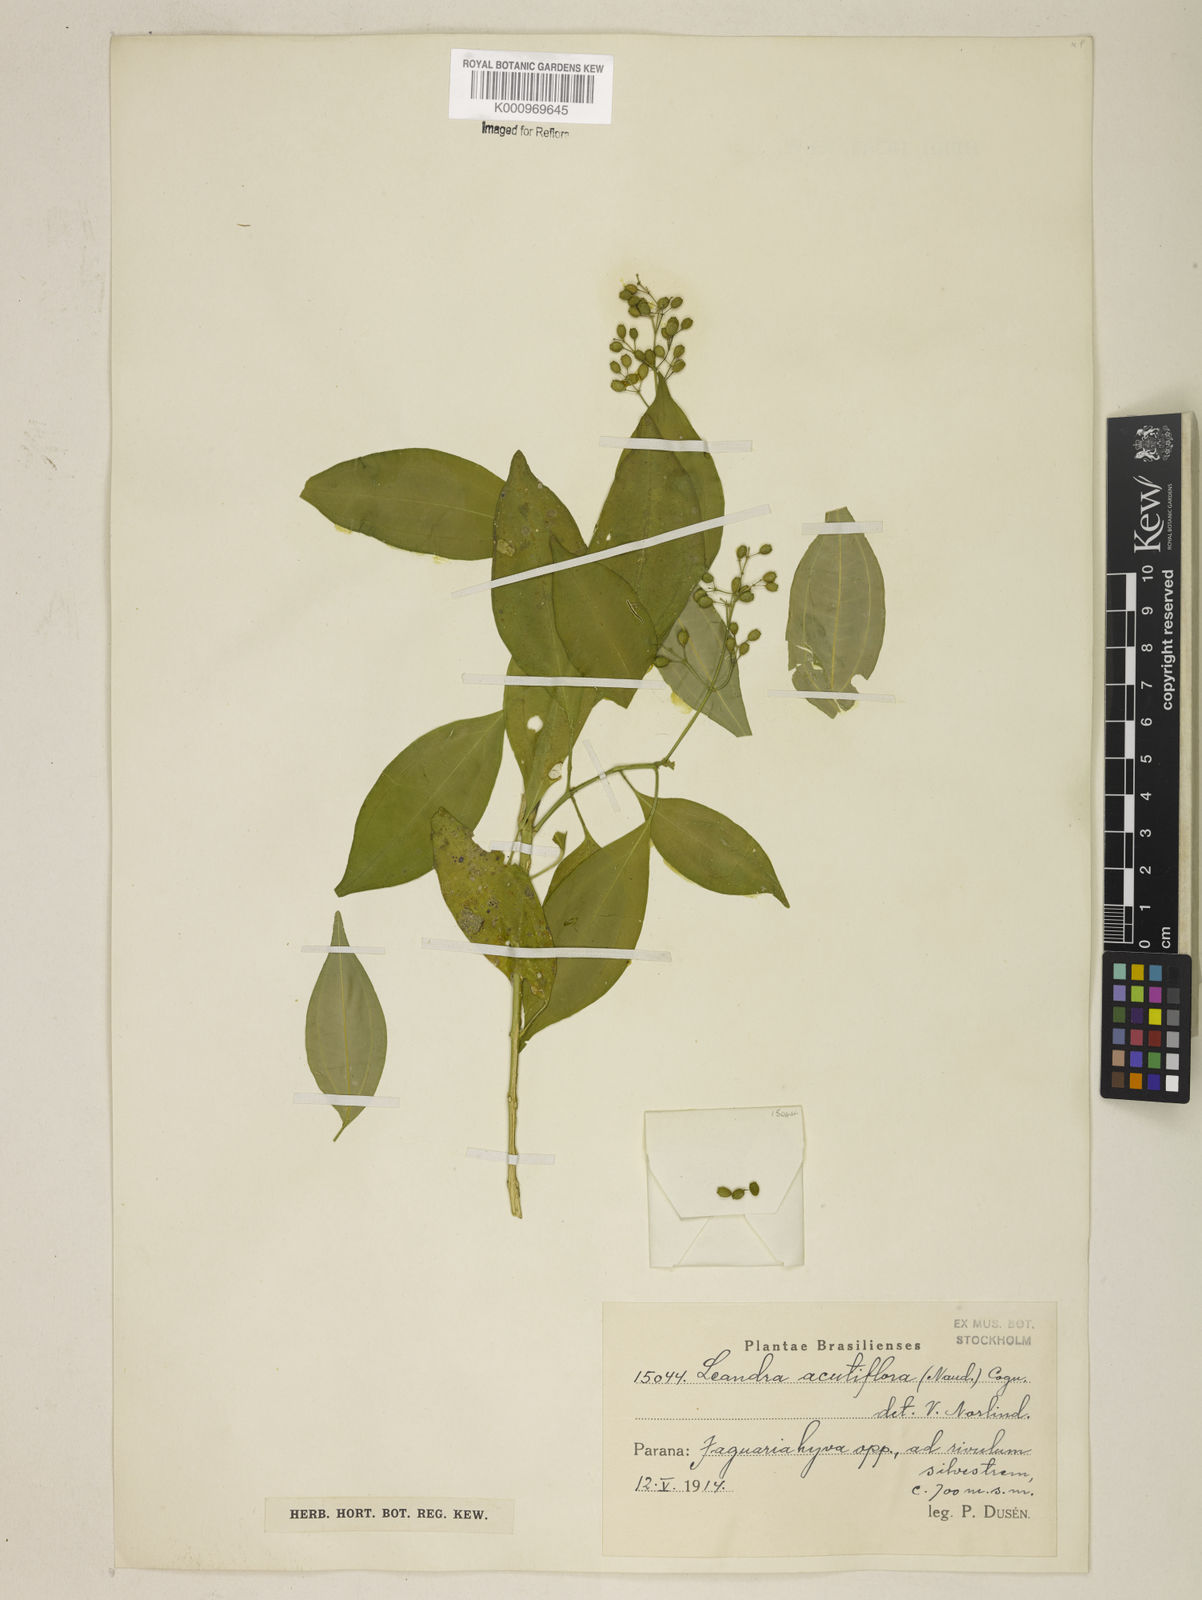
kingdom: Plantae
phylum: Tracheophyta
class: Magnoliopsida
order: Myrtales
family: Melastomataceae
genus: Miconia
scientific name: Miconia acutiflora
